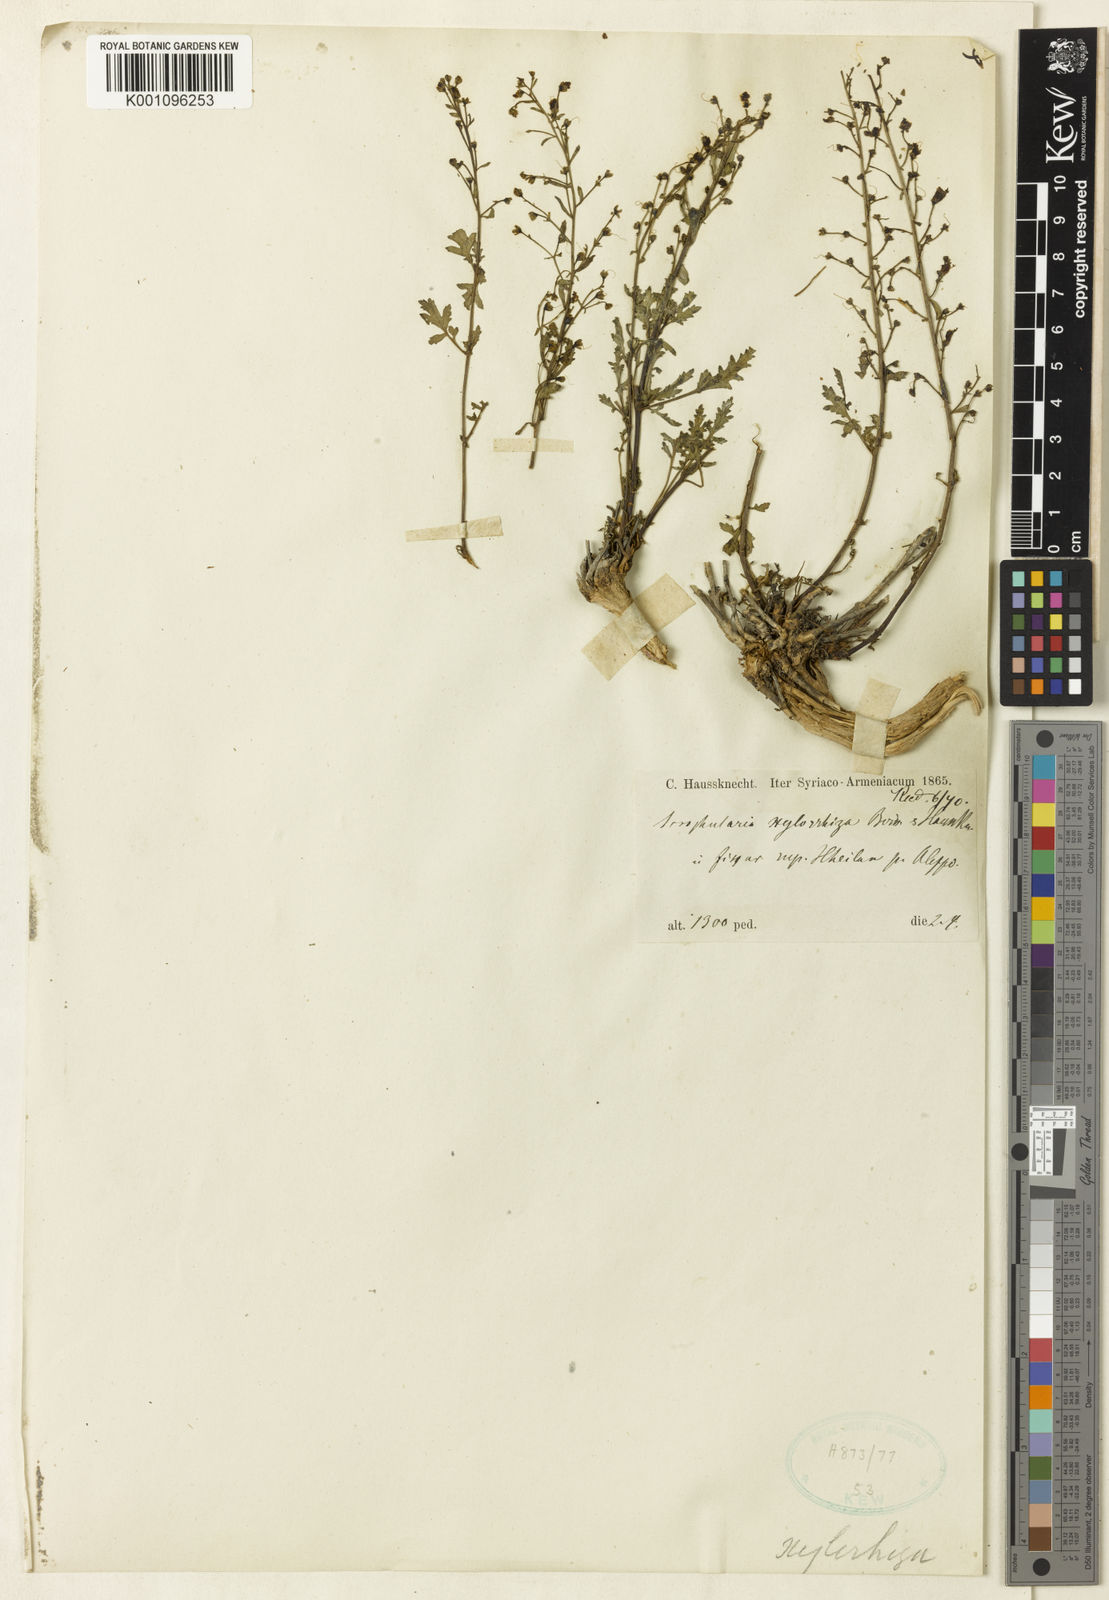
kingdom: Plantae
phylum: Tracheophyta
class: Magnoliopsida
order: Lamiales
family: Scrophulariaceae
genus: Scrophularia
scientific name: Scrophularia xylorrhiza
